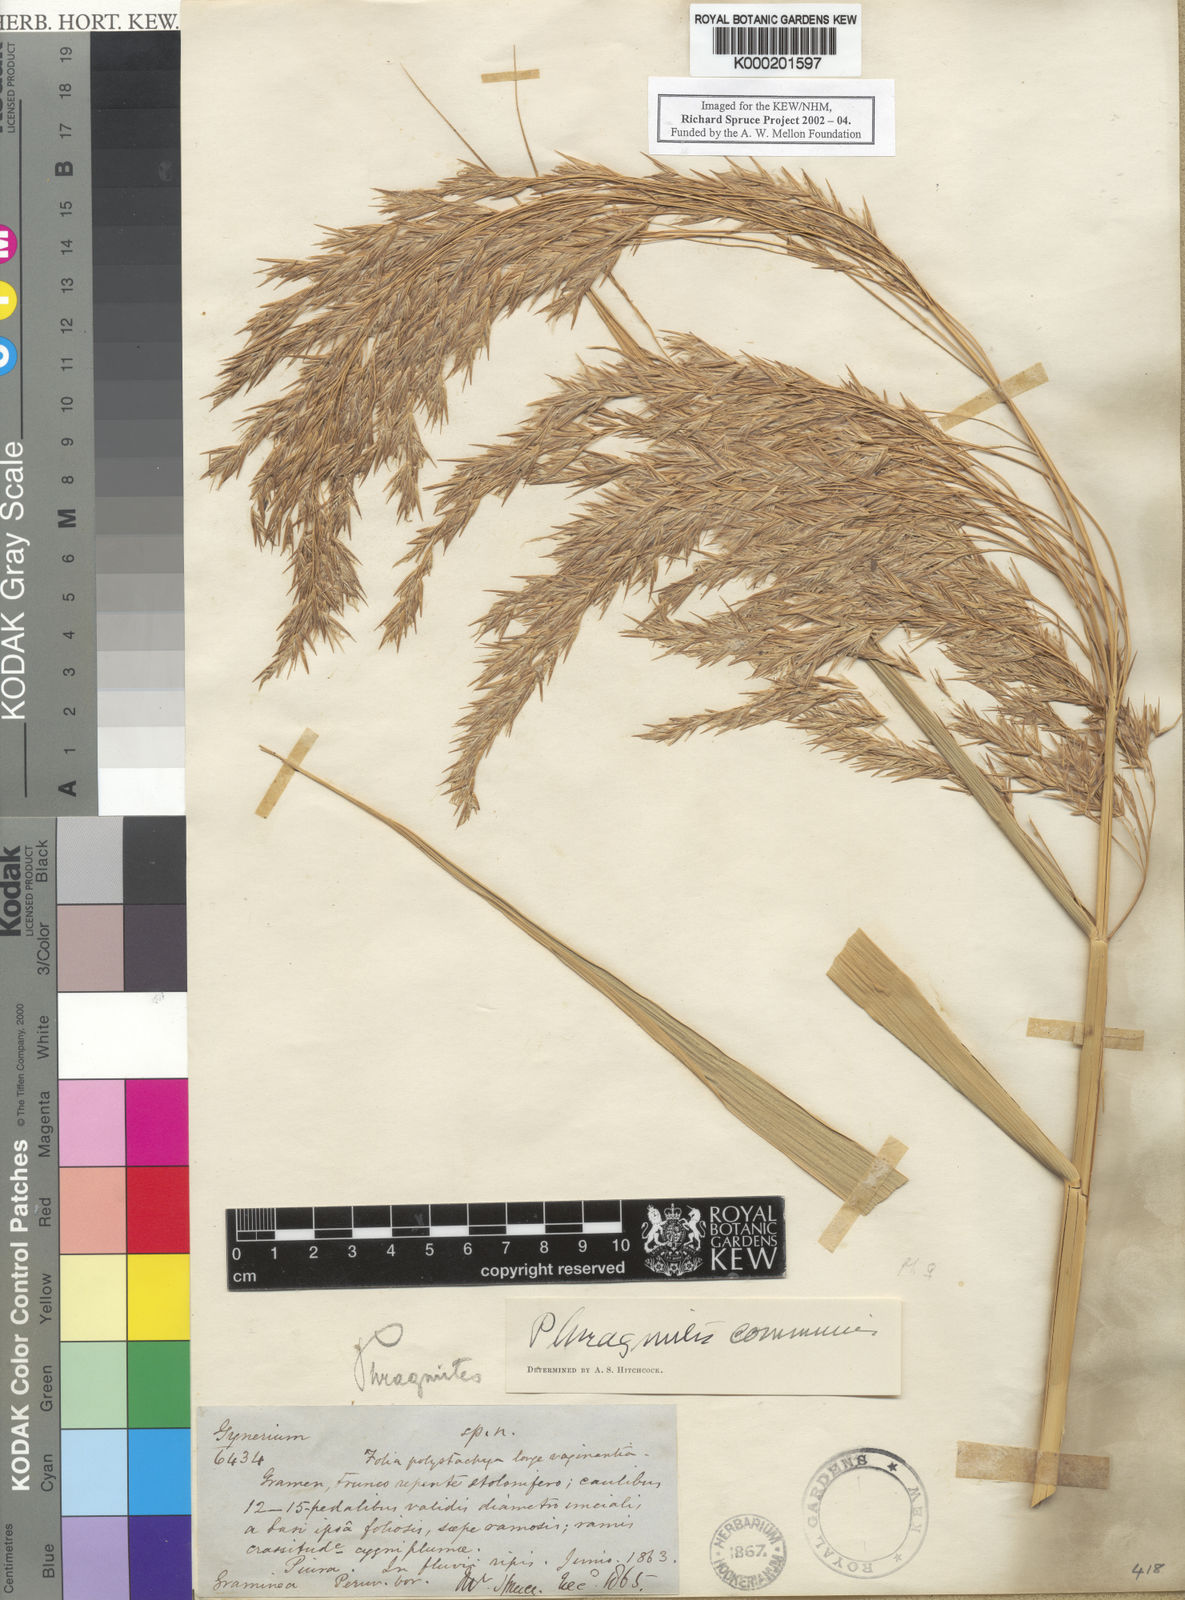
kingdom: Plantae
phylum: Tracheophyta
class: Liliopsida
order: Poales
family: Poaceae
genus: Phragmites
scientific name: Phragmites australis
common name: Common reed
